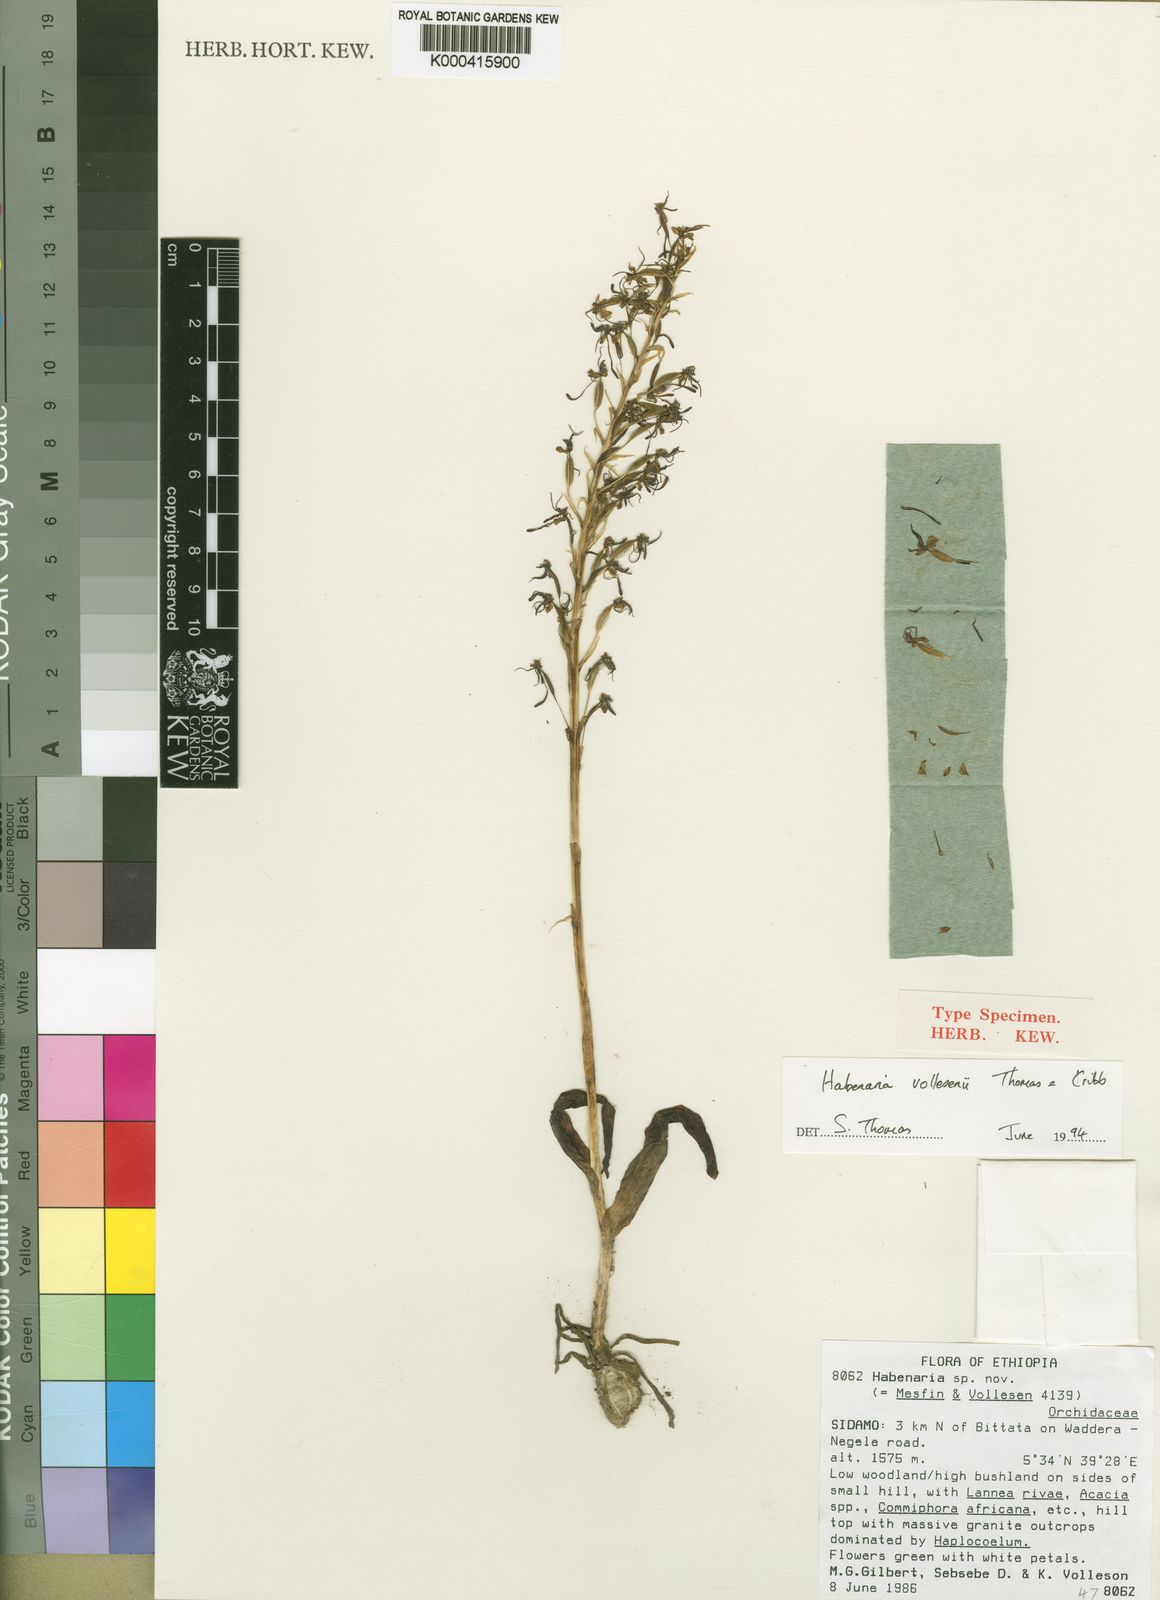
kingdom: Plantae
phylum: Tracheophyta
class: Liliopsida
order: Asparagales
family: Orchidaceae
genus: Habenaria
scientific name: Habenaria vollesenii
